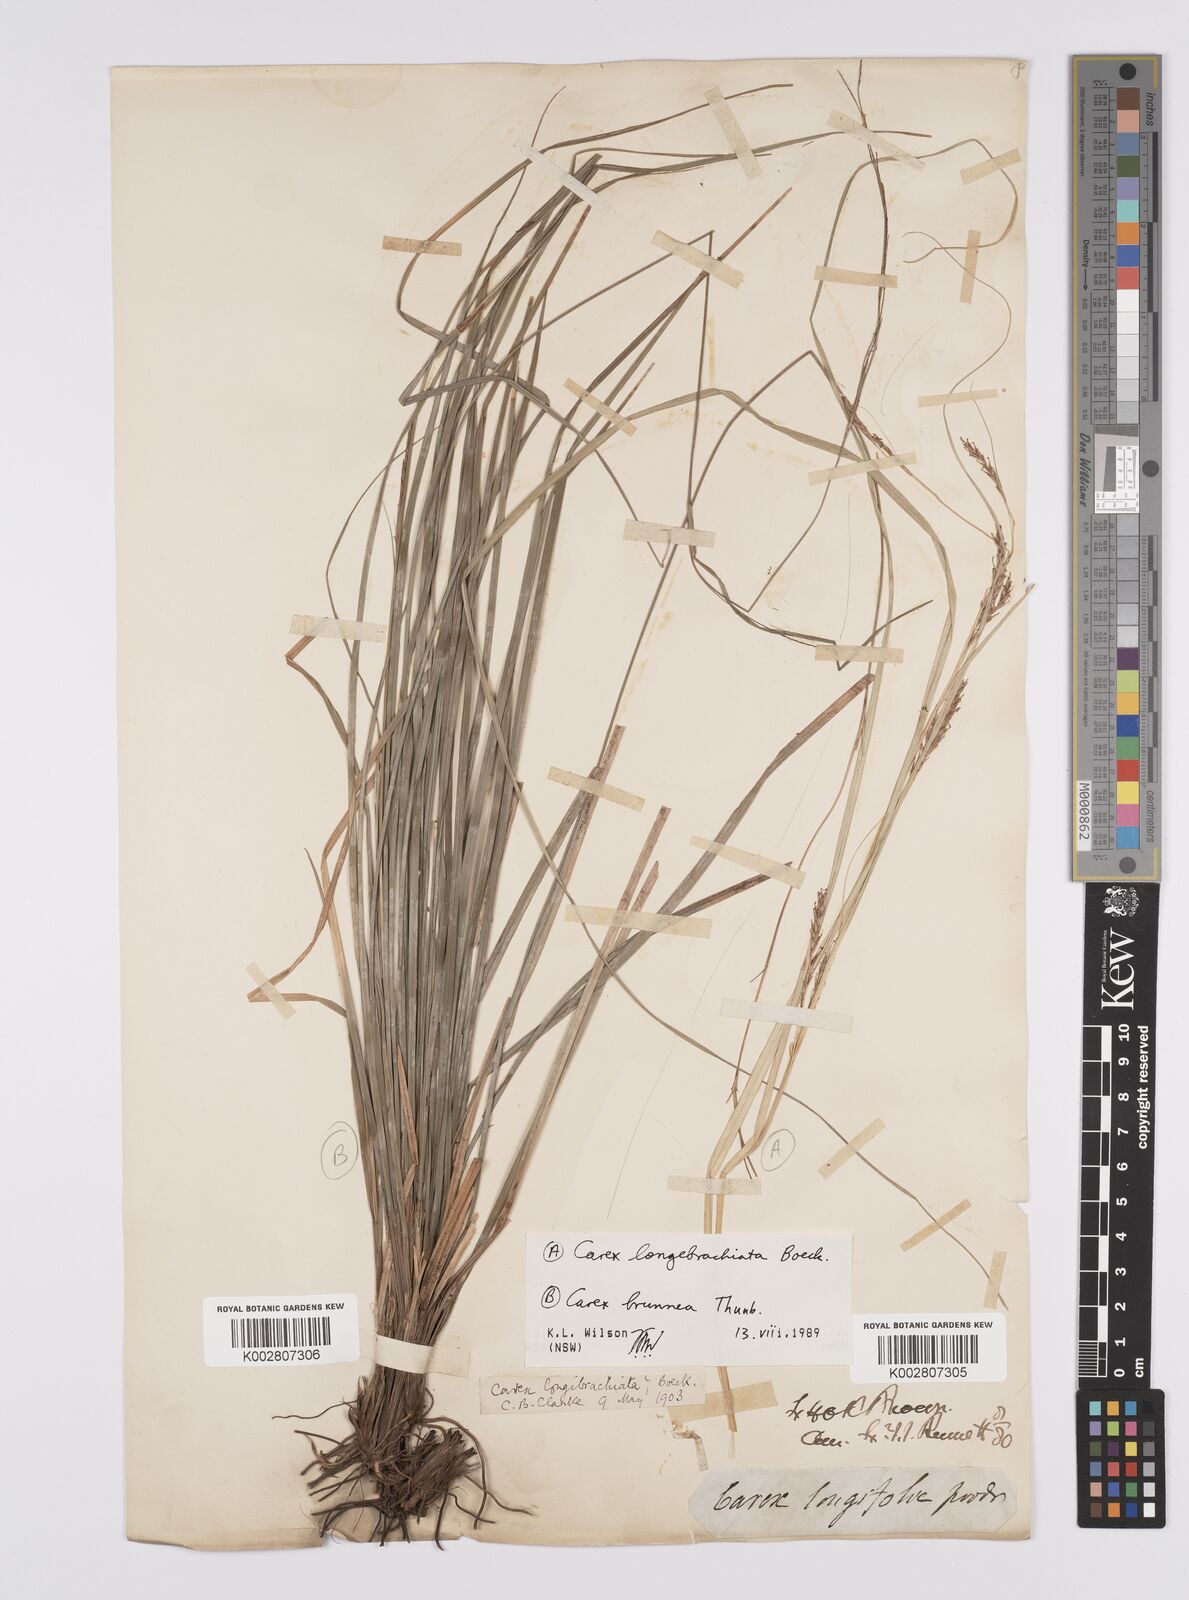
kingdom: Plantae
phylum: Tracheophyta
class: Liliopsida
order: Poales
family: Cyperaceae
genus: Carex
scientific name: Carex pseudocyperus
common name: Cyperus sedge
